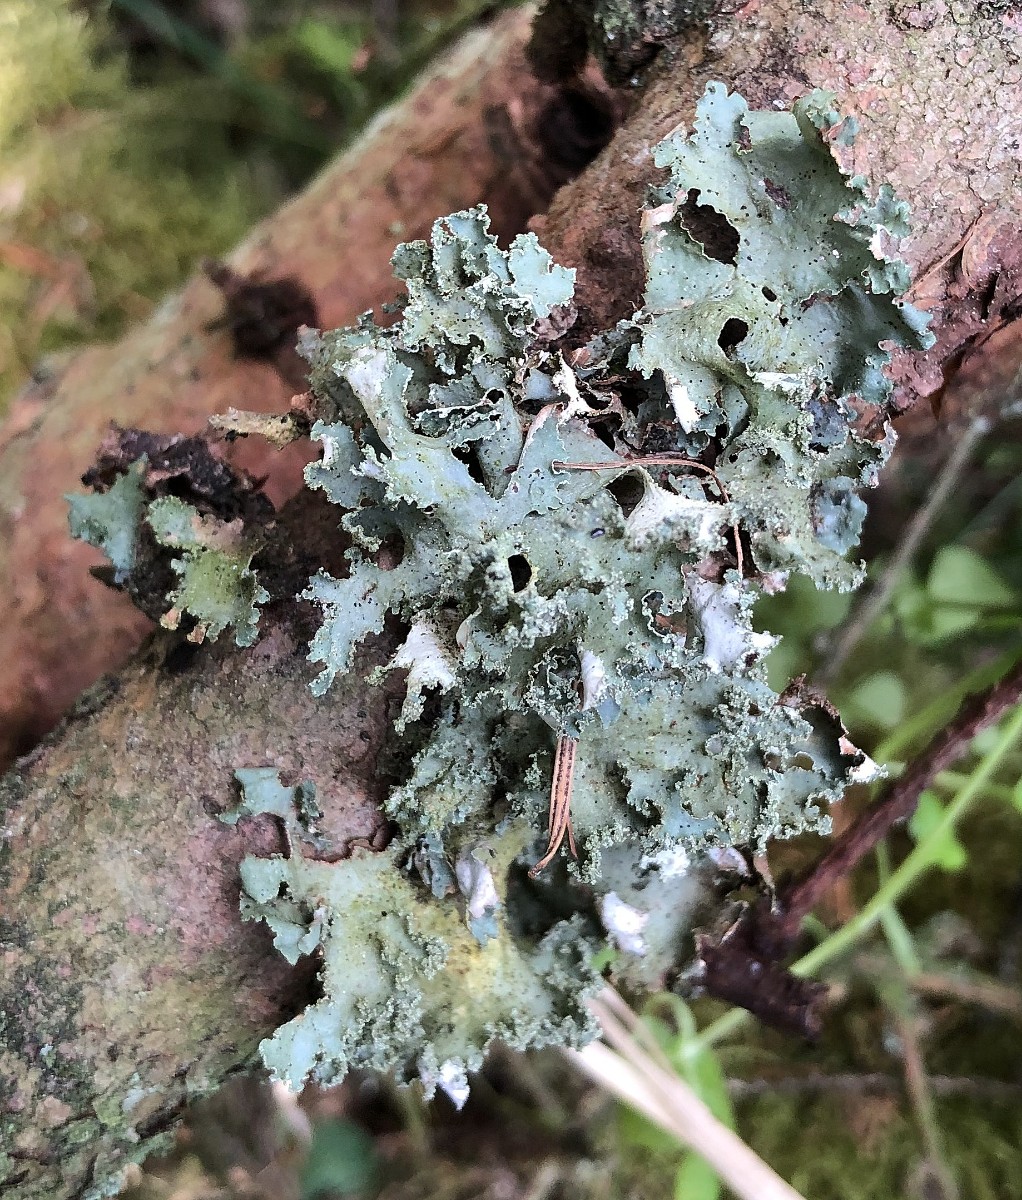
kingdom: Fungi
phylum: Ascomycota
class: Lecanoromycetes
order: Lecanorales
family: Parmeliaceae
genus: Platismatia
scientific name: Platismatia glauca
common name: blågrå papirlav
